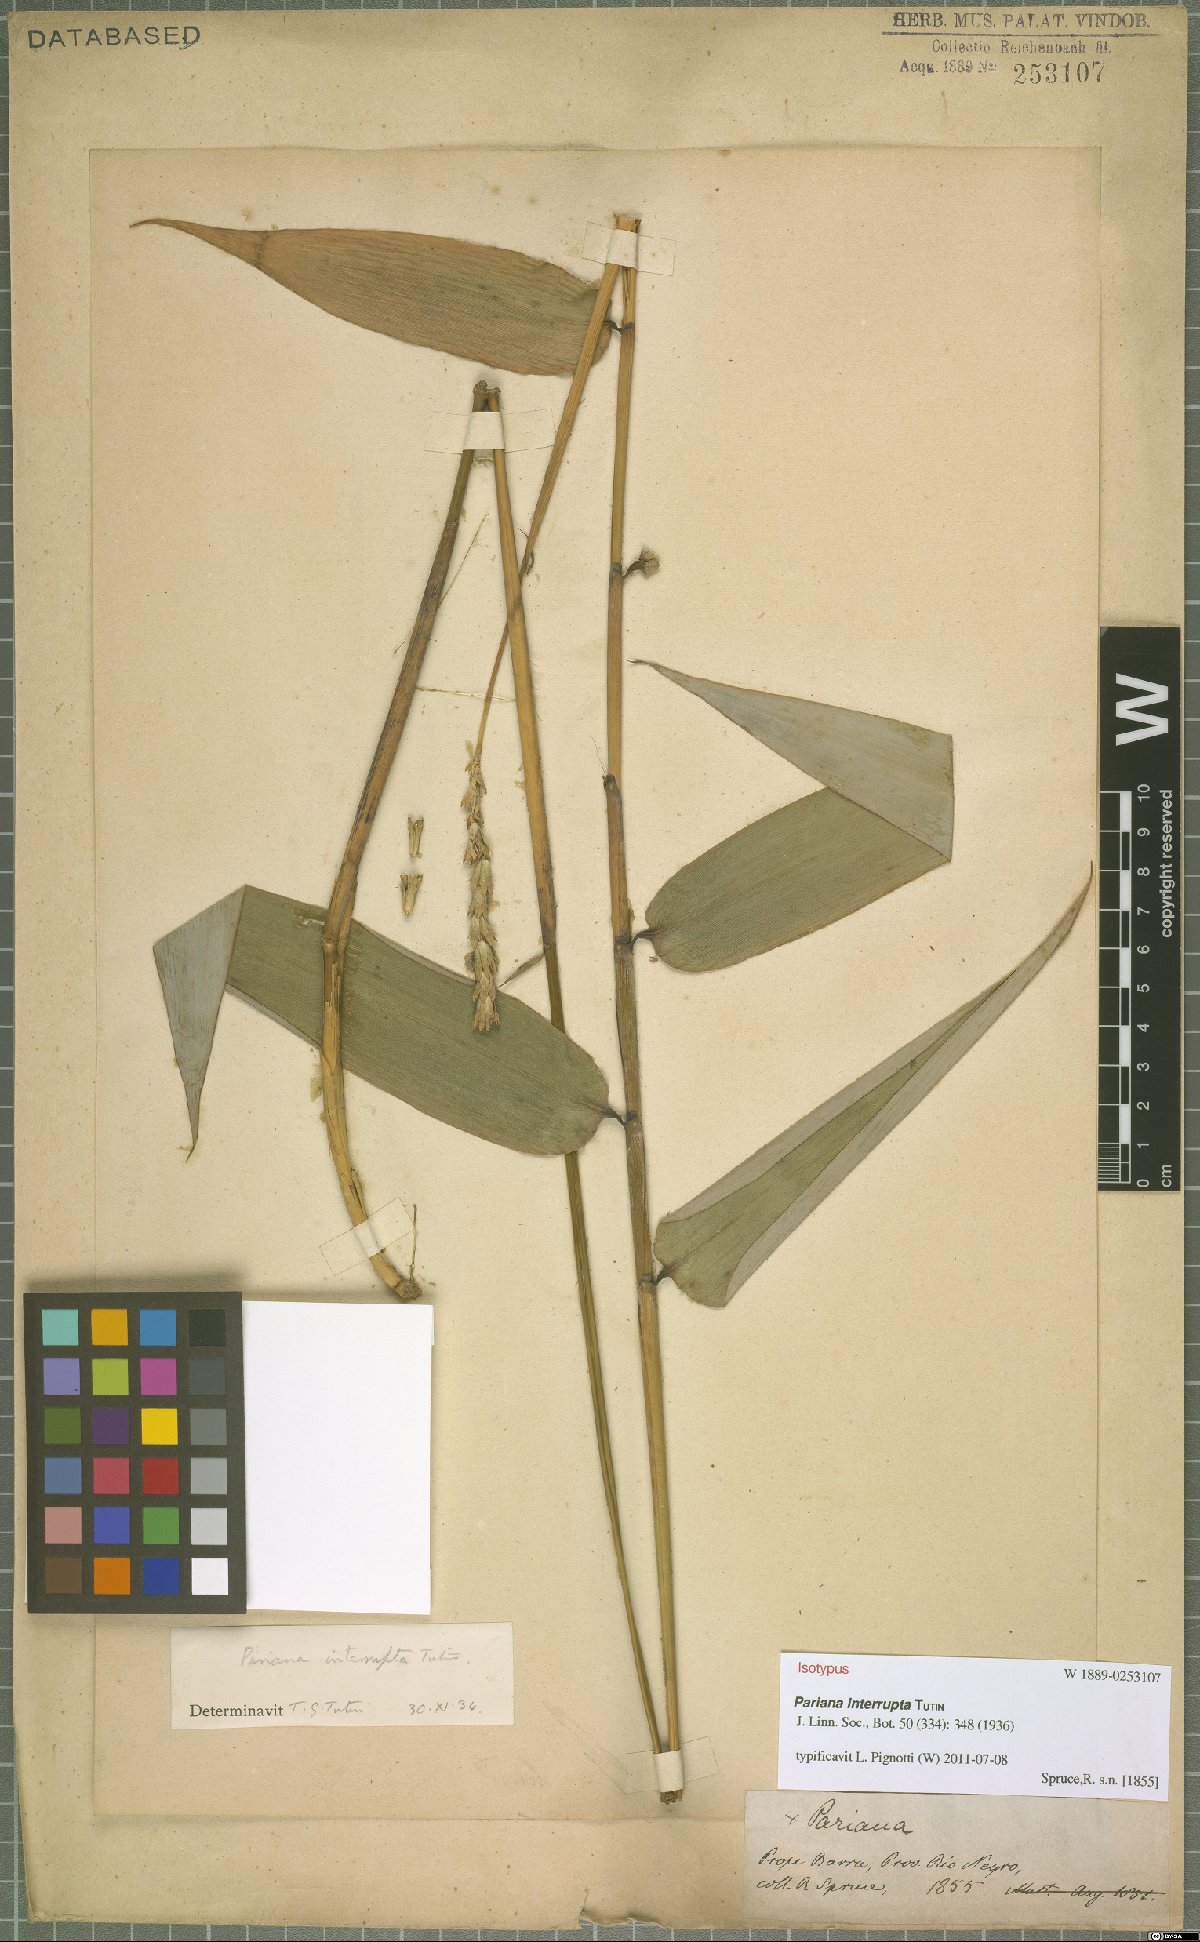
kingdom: Plantae
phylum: Tracheophyta
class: Liliopsida
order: Poales
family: Poaceae
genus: Pariana
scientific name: Pariana interrupta
